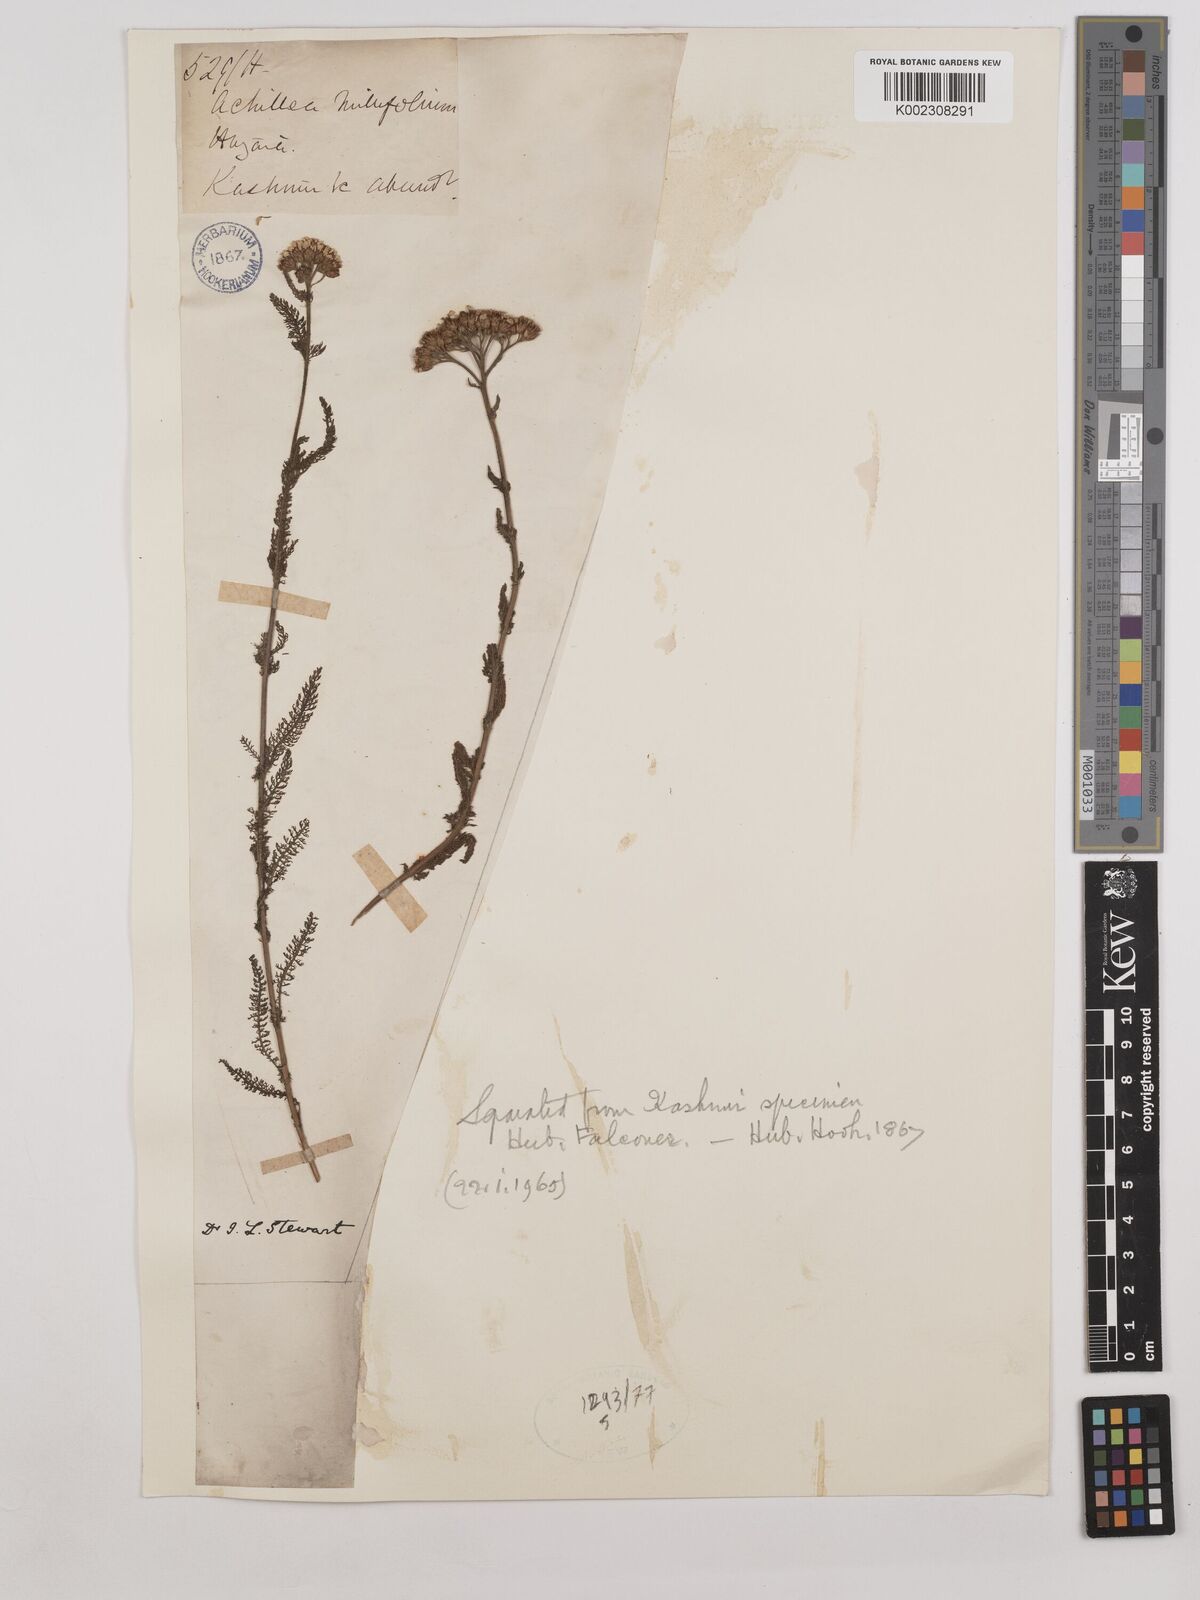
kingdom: Plantae
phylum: Tracheophyta
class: Magnoliopsida
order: Asterales
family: Asteraceae
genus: Achillea
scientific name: Achillea millefolium
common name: Yarrow
